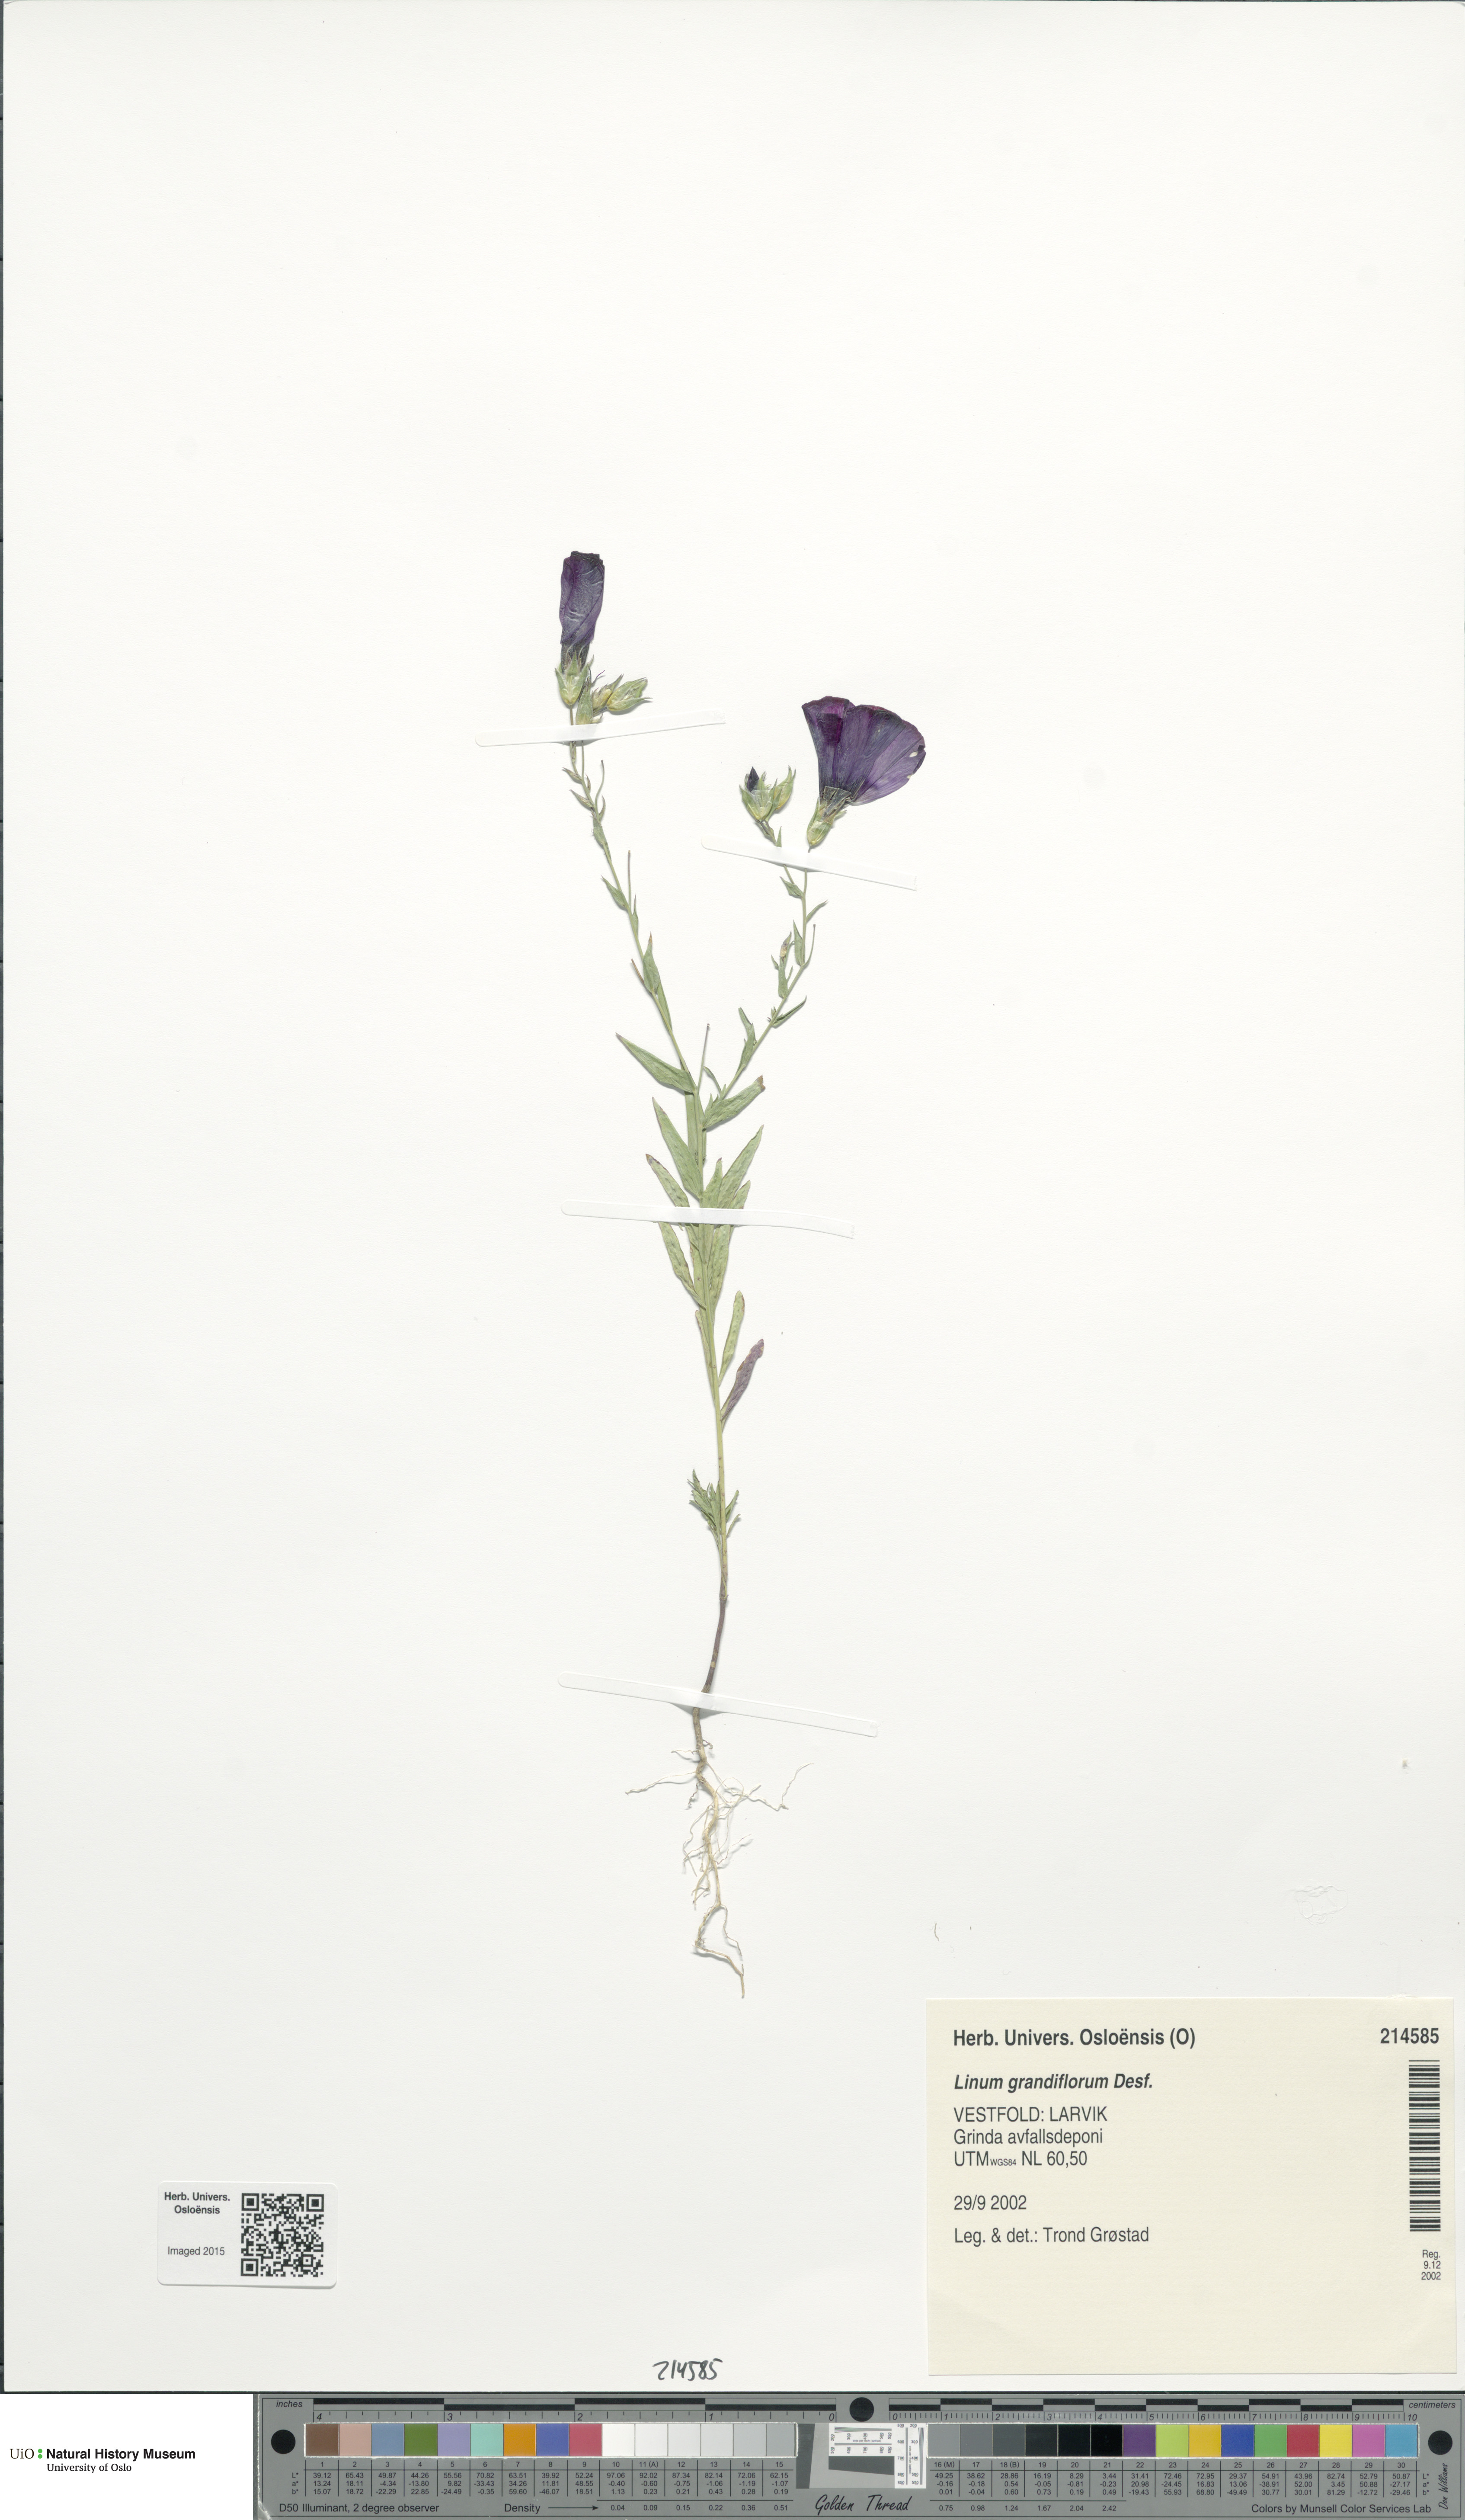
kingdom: Plantae
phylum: Tracheophyta
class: Magnoliopsida
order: Malpighiales
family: Linaceae
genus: Linum
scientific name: Linum grandiflorum
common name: Crimson flax
